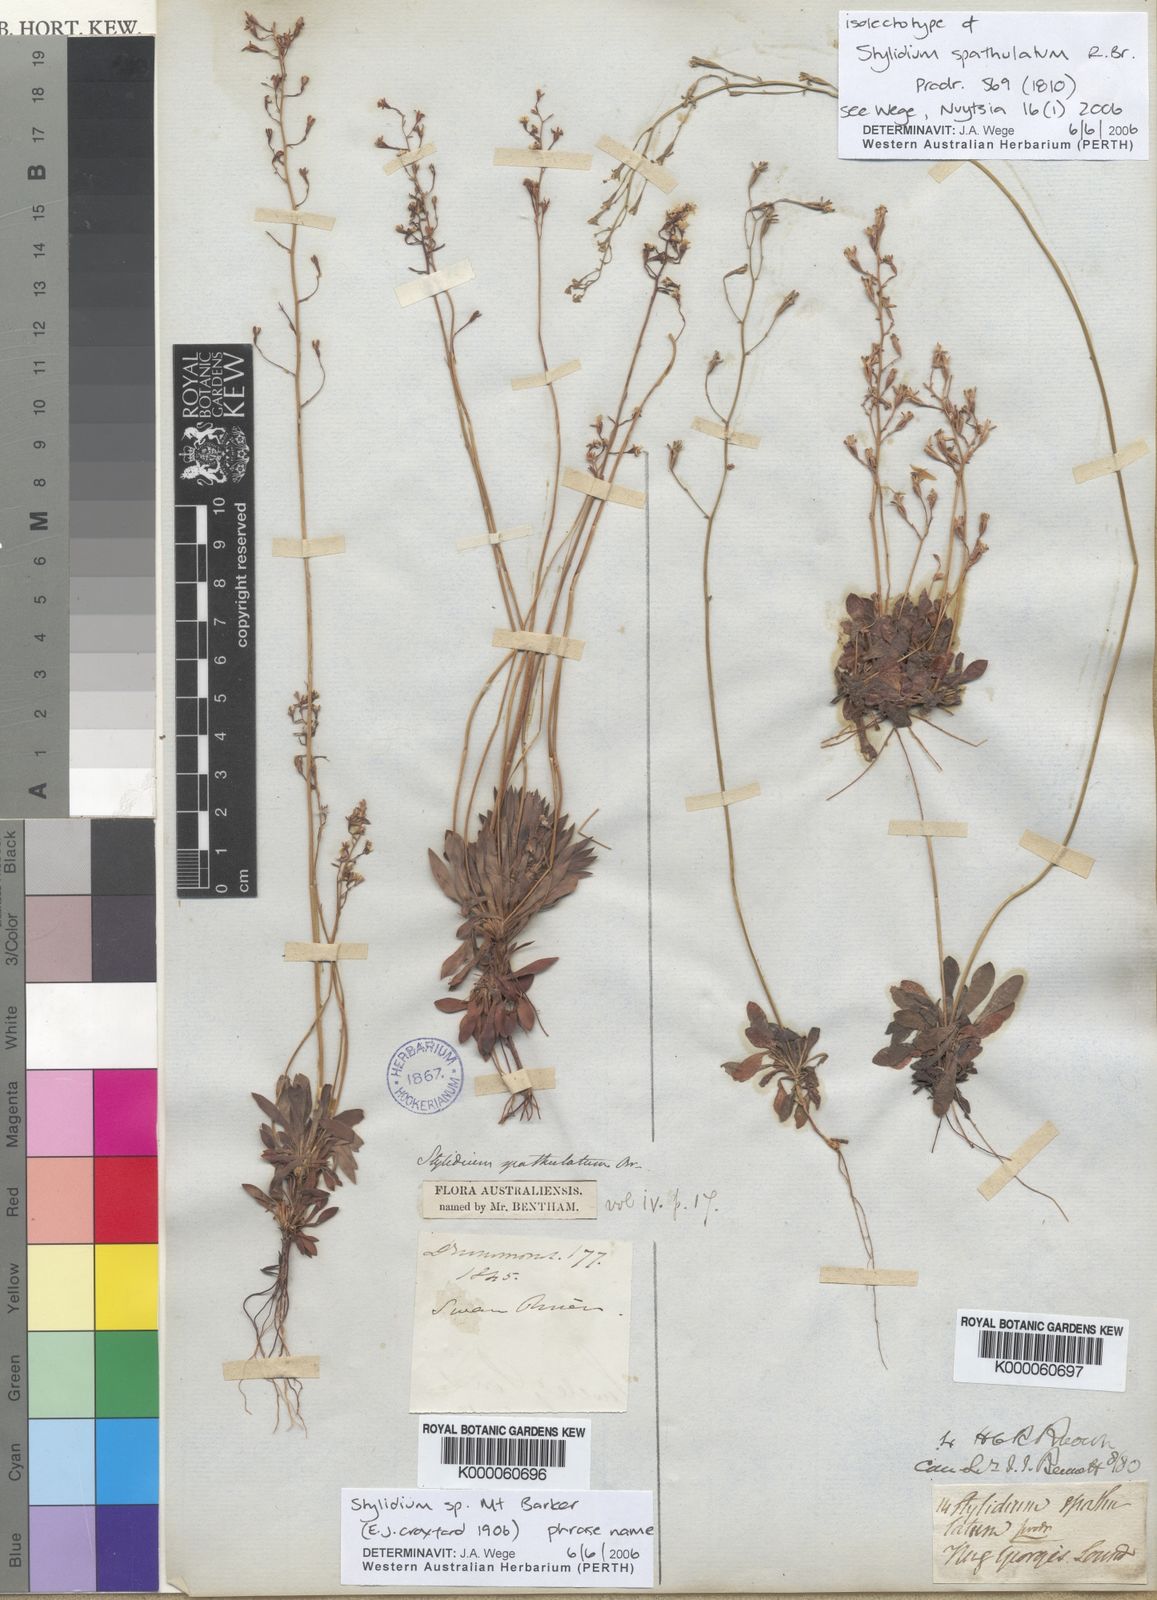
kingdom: Plantae
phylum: Tracheophyta
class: Magnoliopsida
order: Asterales
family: Stylidiaceae
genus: Stylidium
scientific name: Stylidium spathulatum
